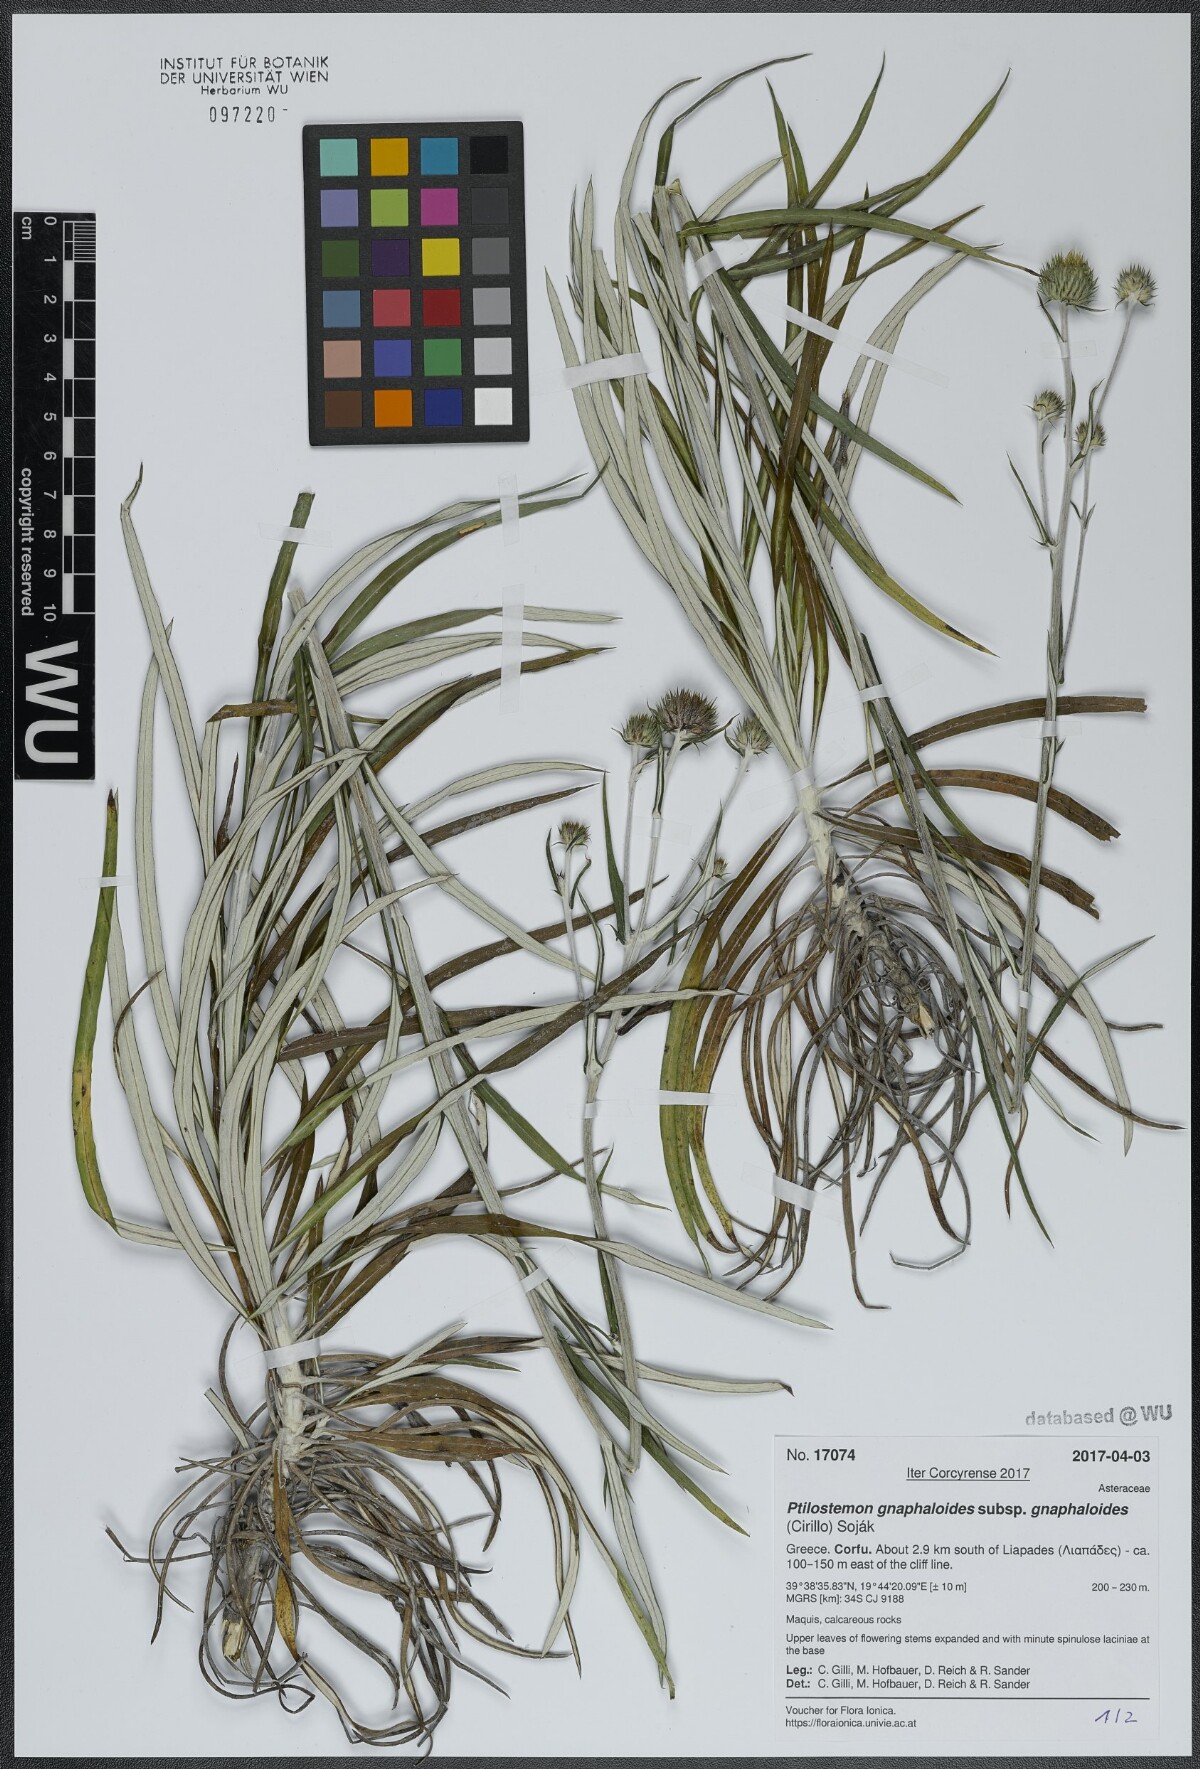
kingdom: Plantae
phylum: Tracheophyta
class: Magnoliopsida
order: Asterales
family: Asteraceae
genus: Ptilostemon
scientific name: Ptilostemon gnaphaloides
